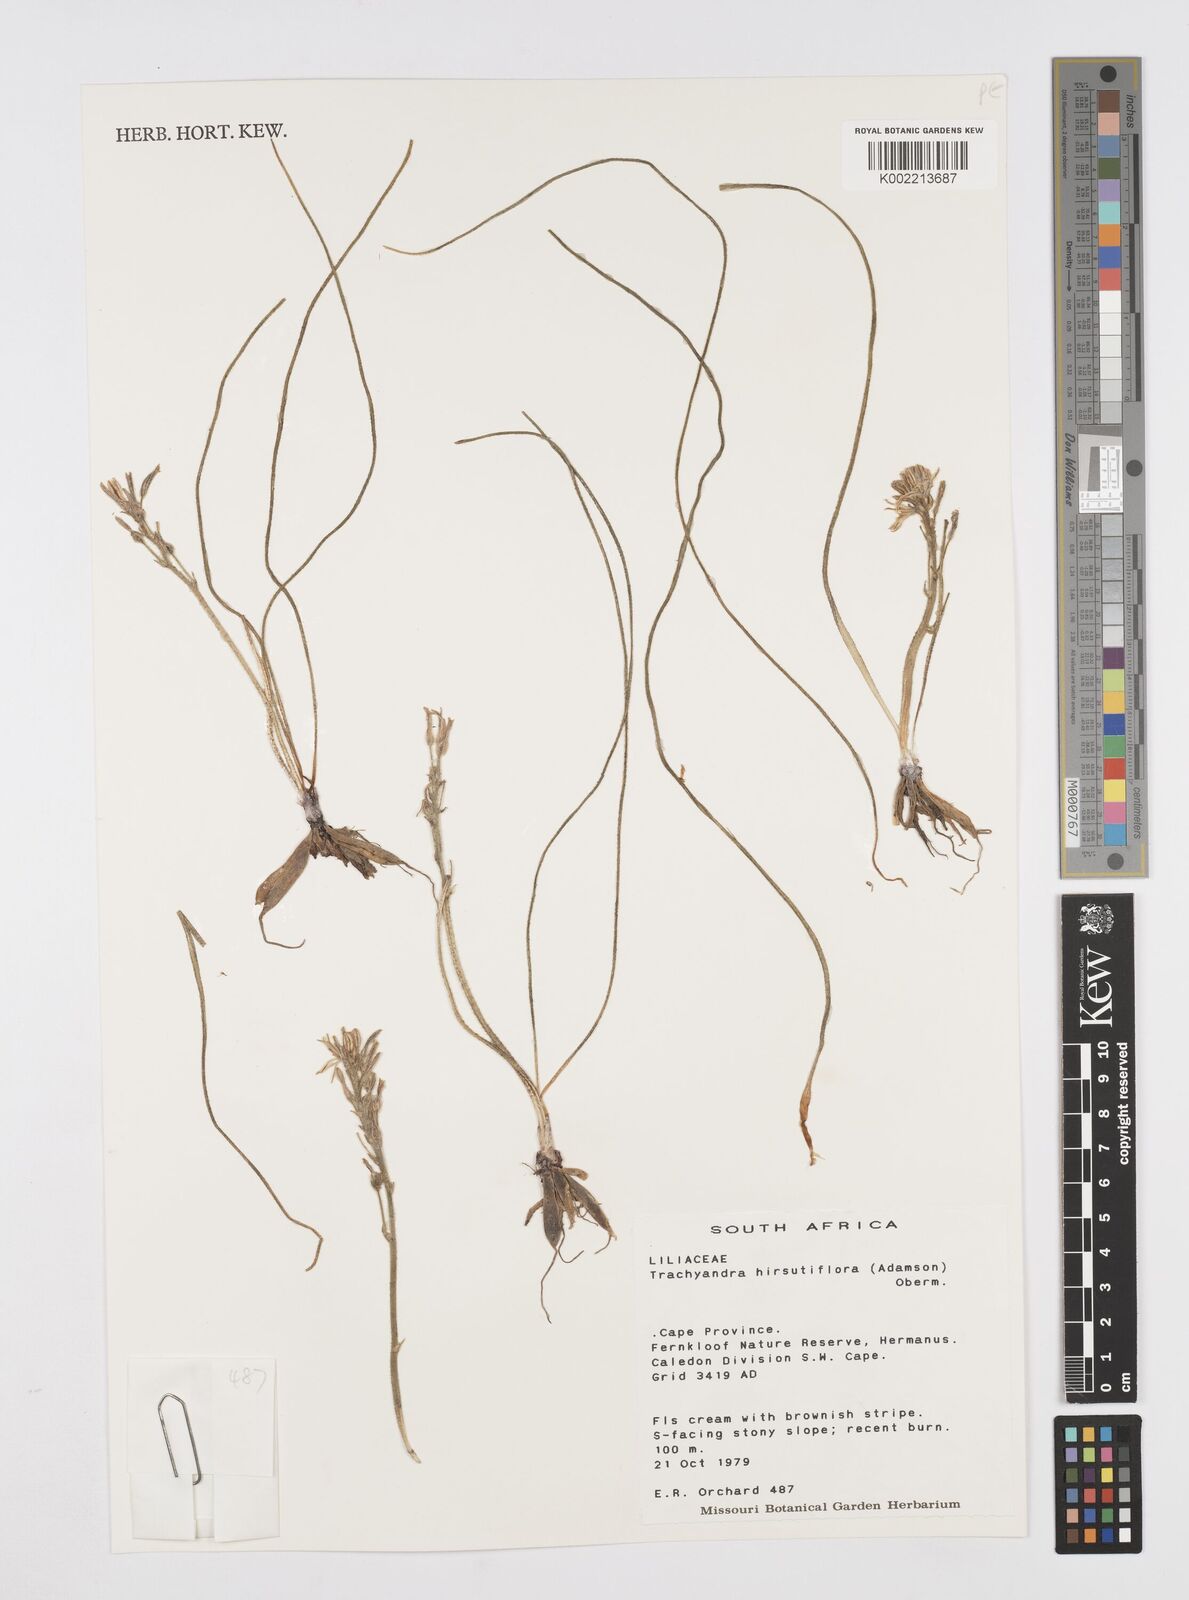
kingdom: Plantae
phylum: Tracheophyta
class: Liliopsida
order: Asparagales
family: Asphodelaceae
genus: Trachyandra
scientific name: Trachyandra hirsutiflora
